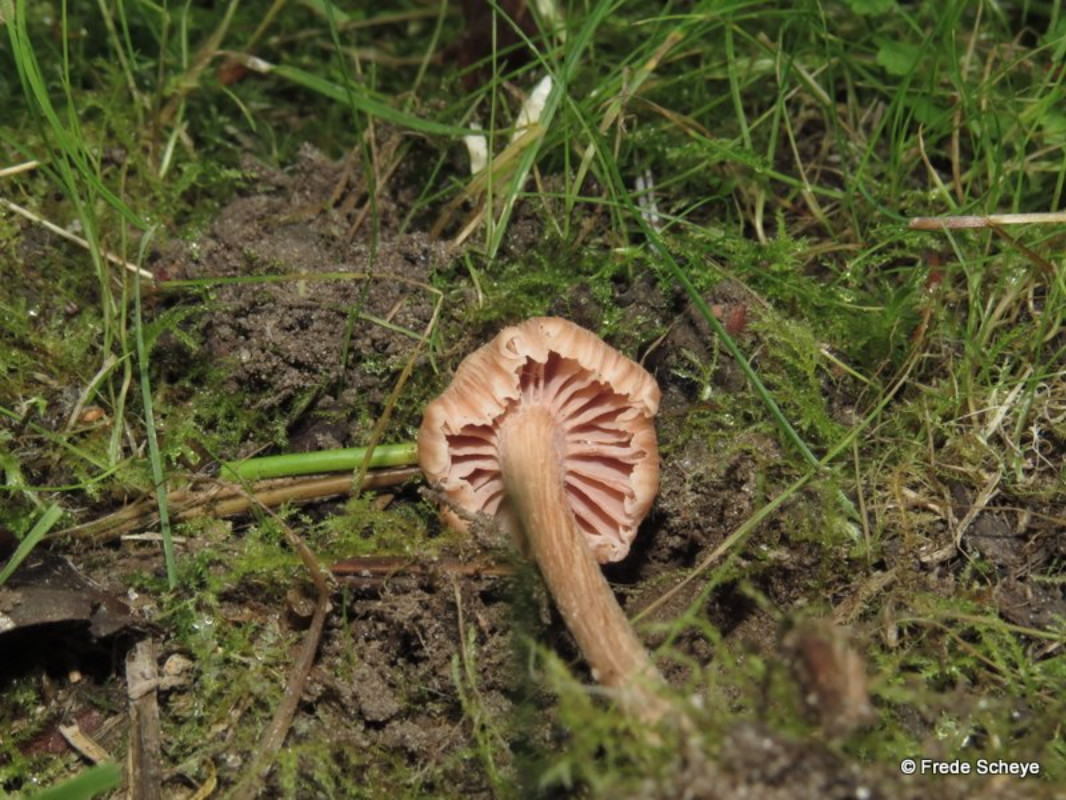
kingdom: Fungi
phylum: Basidiomycota
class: Agaricomycetes
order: Agaricales
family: Hydnangiaceae
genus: Laccaria
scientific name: Laccaria laccata
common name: rød ametysthat
